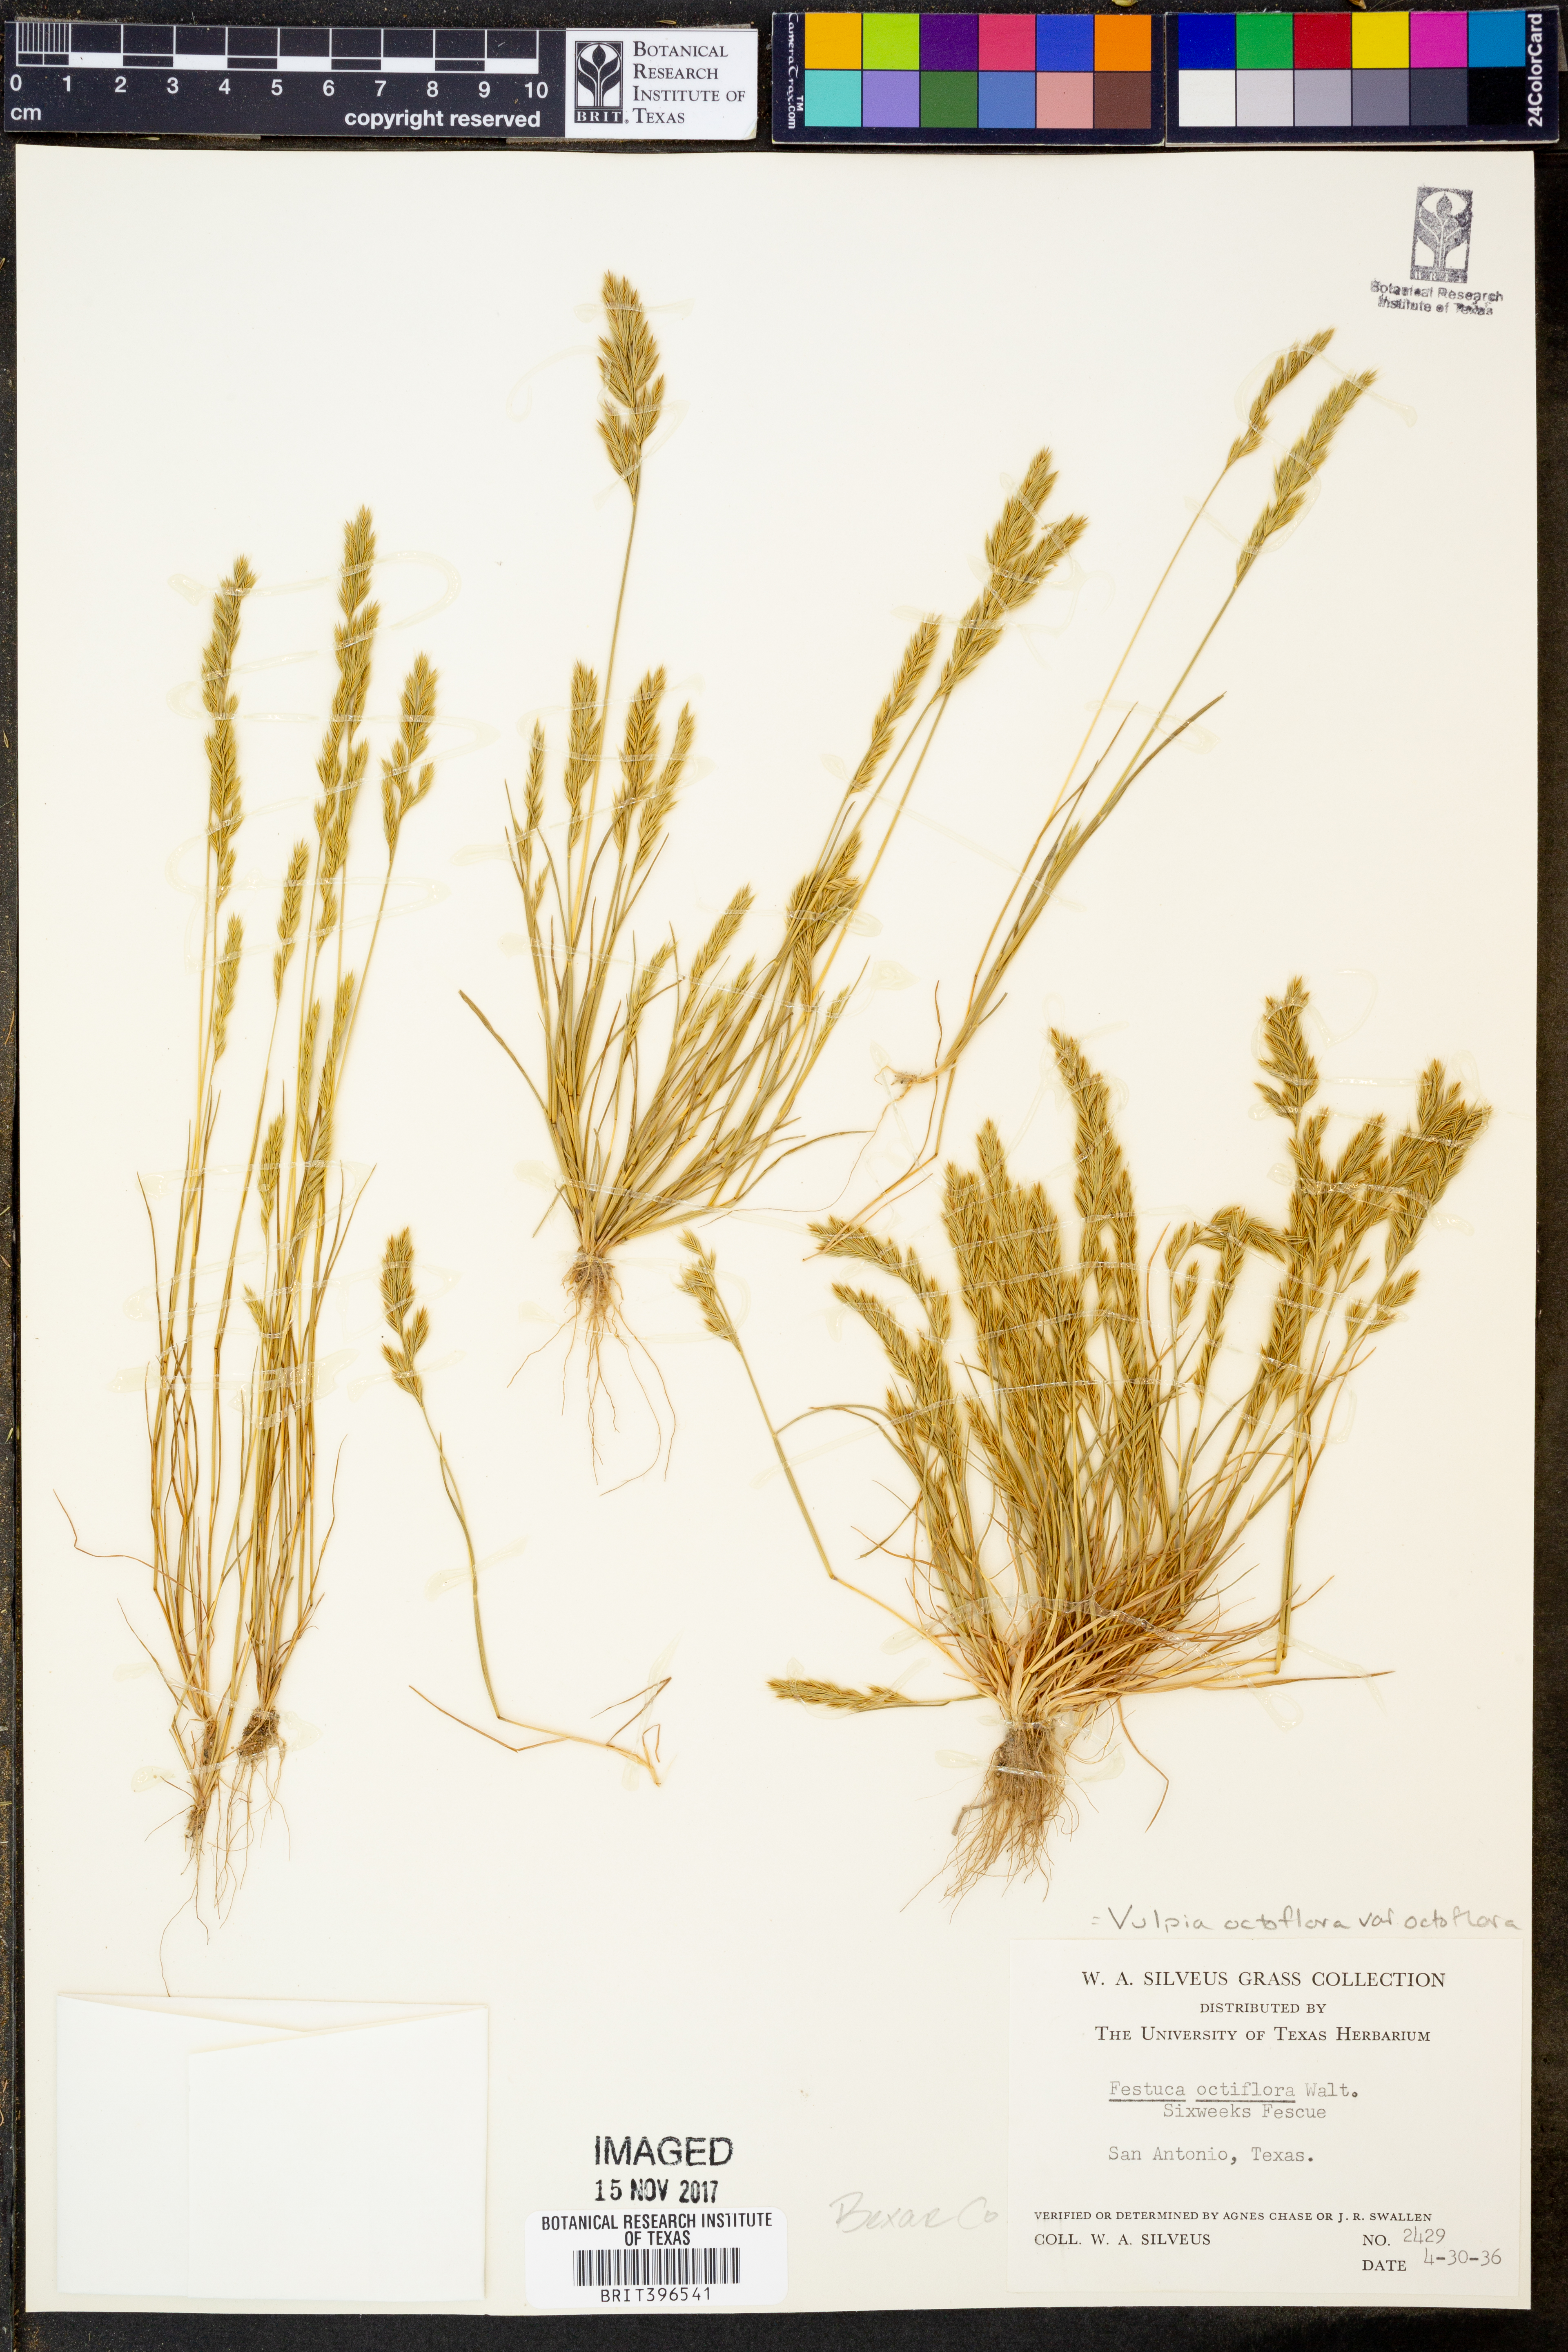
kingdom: Plantae
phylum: Tracheophyta
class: Liliopsida
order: Poales
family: Poaceae
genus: Festuca
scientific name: Festuca octoflora
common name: Sixweeks grass
